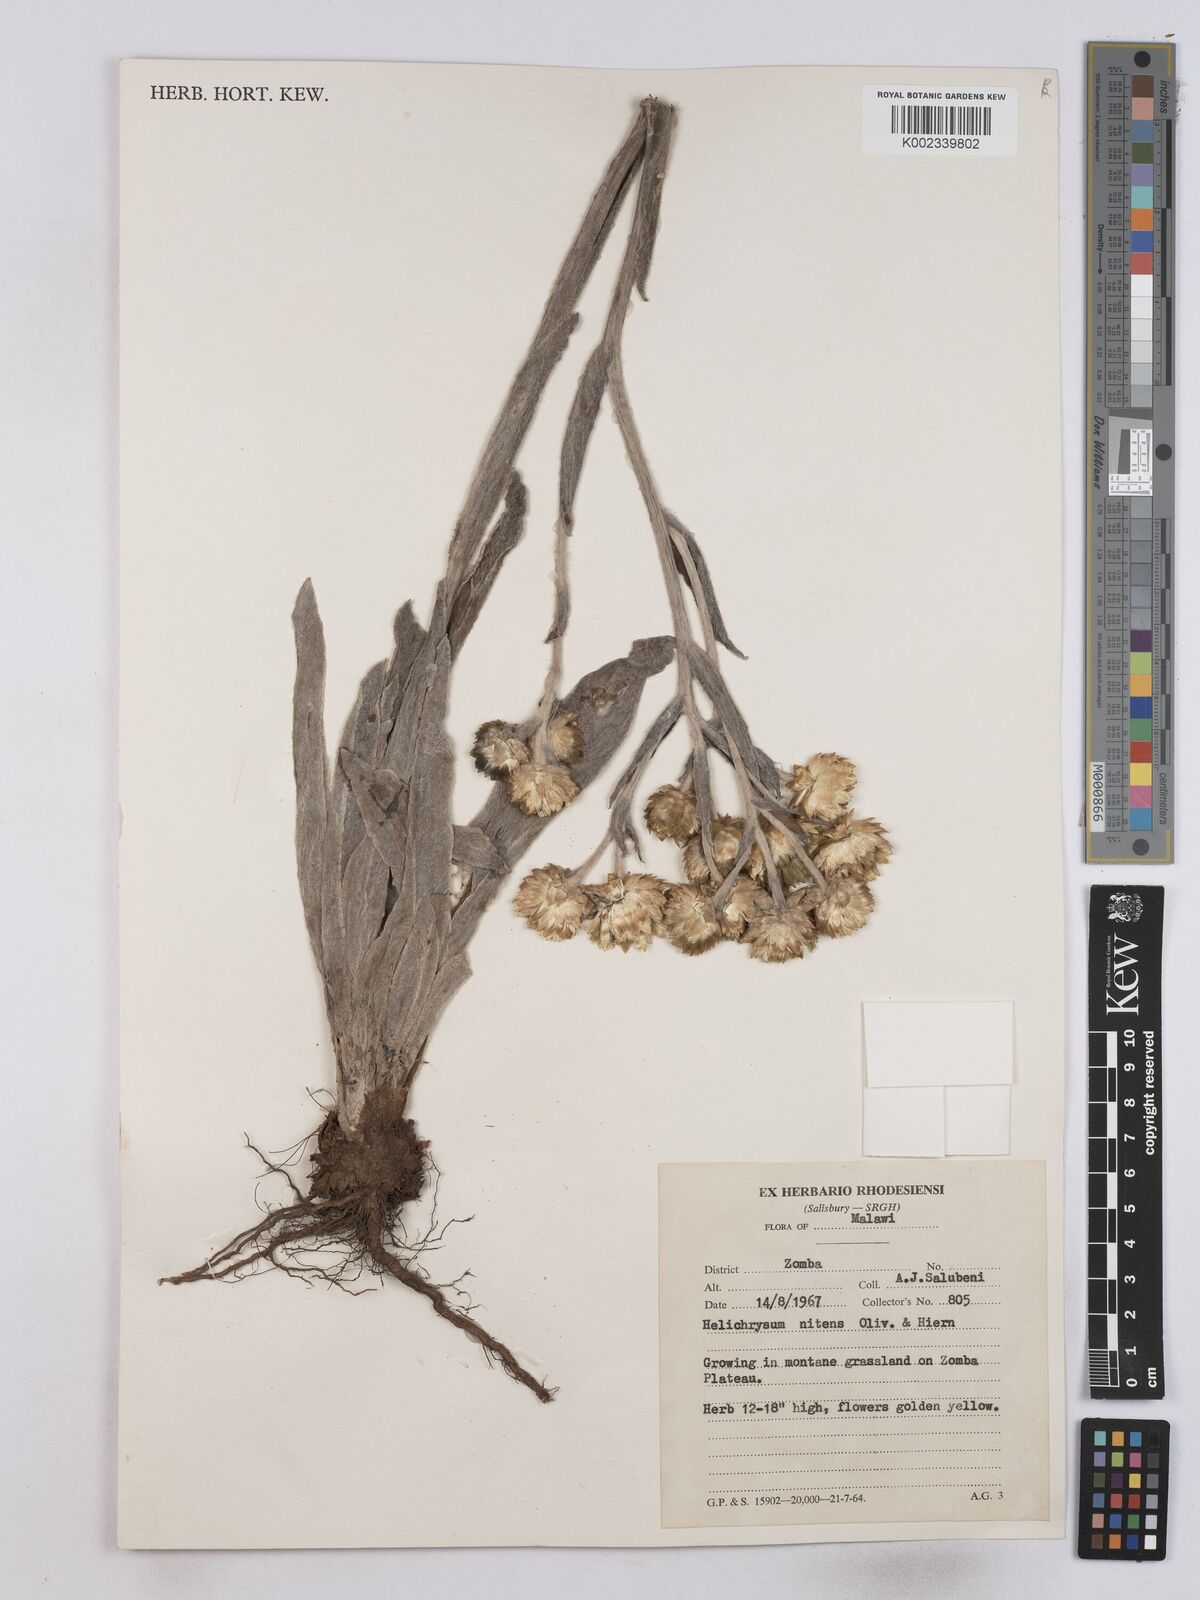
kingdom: Plantae
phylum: Tracheophyta
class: Magnoliopsida
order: Asterales
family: Asteraceae
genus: Helichrysum
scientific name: Helichrysum nitens
